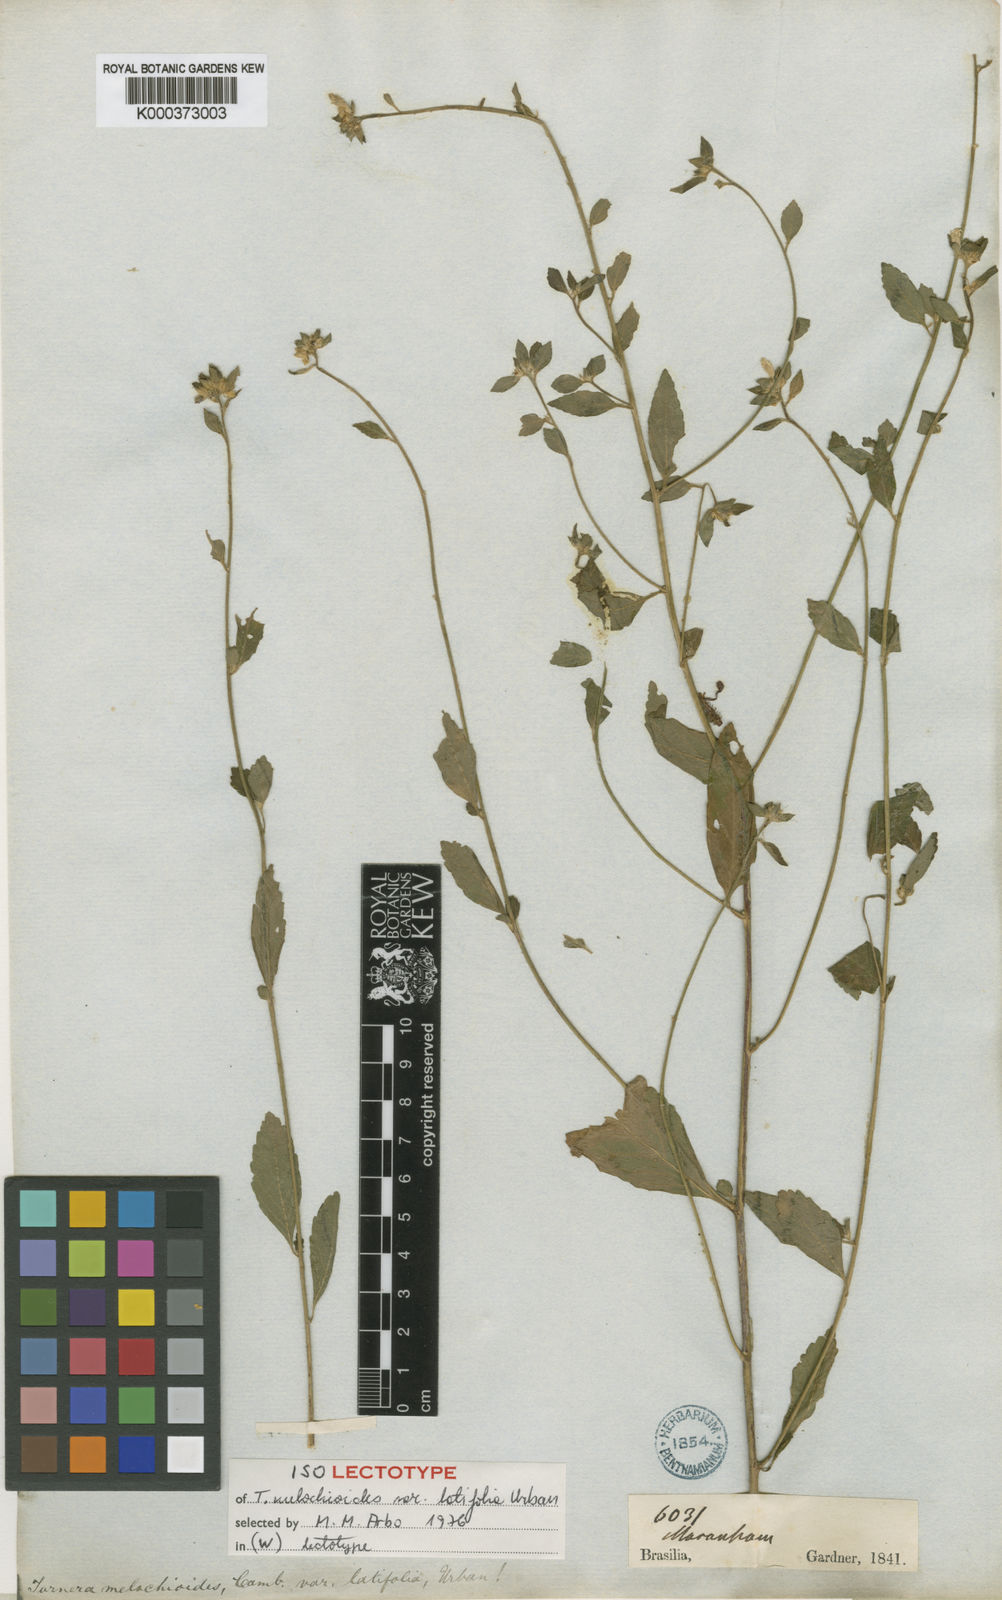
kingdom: Plantae
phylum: Tracheophyta
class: Magnoliopsida
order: Malpighiales
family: Turneraceae
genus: Turnera
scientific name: Turnera melochioides
